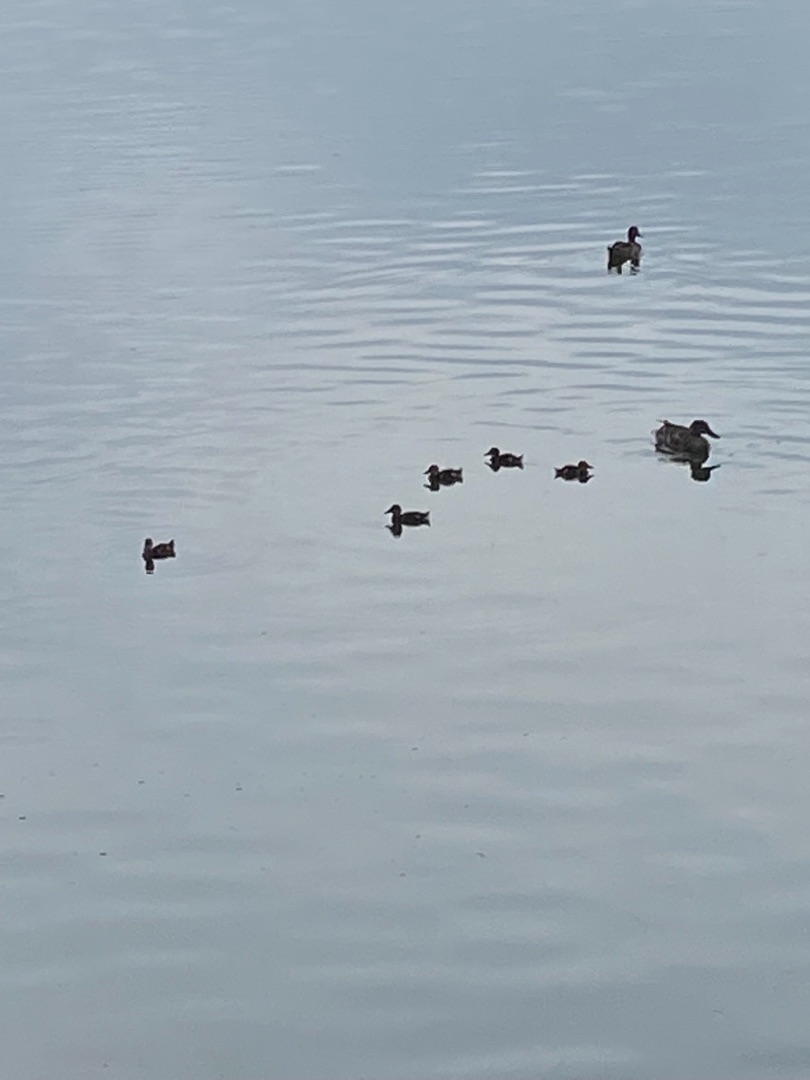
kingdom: Animalia
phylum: Chordata
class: Aves
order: Anseriformes
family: Anatidae
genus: Anas
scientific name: Anas platyrhynchos
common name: Gråand
